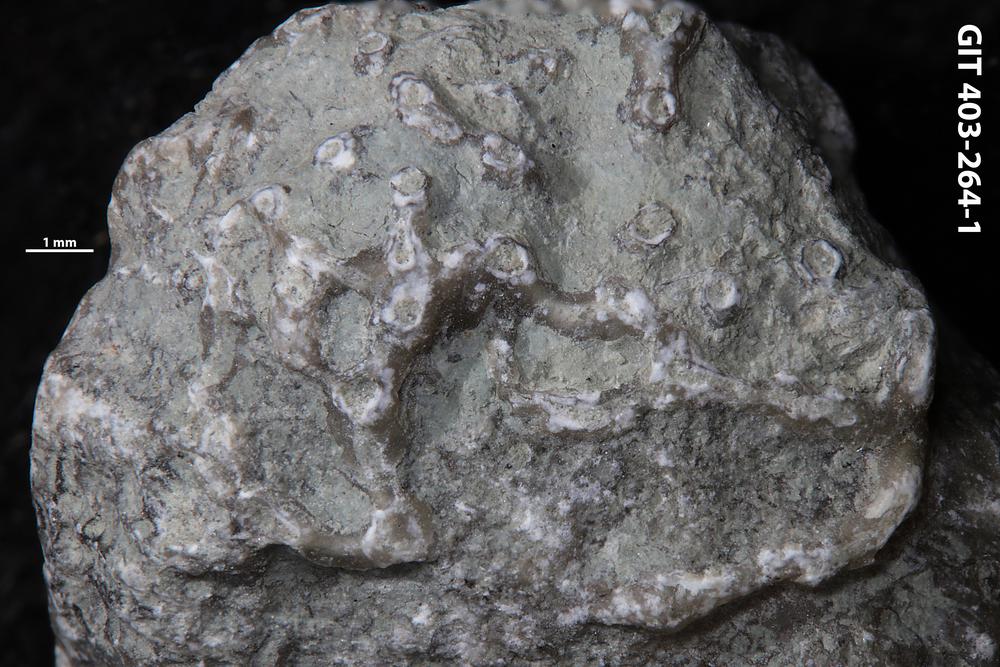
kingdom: Animalia
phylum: Cnidaria
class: Anthozoa
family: Auloporidae
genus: Aulopora
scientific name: Aulopora
